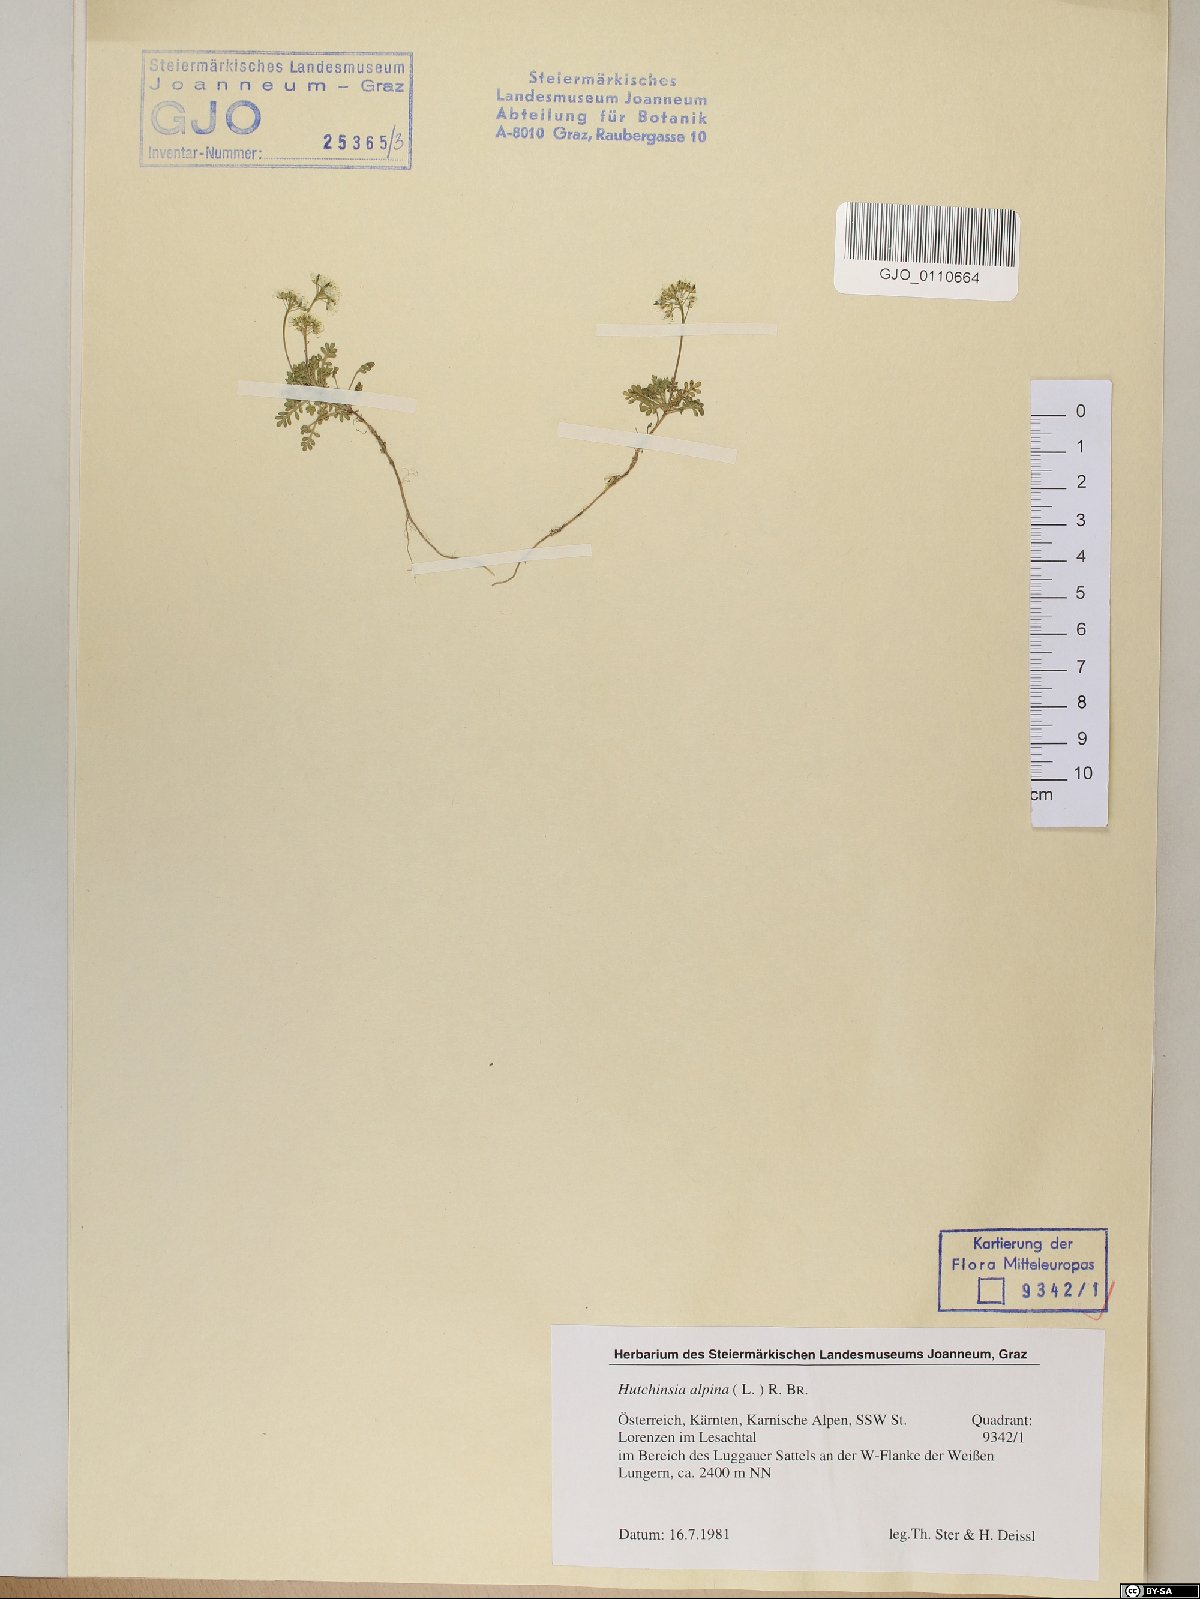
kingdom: Plantae
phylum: Tracheophyta
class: Magnoliopsida
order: Brassicales
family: Brassicaceae
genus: Hornungia
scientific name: Hornungia alpina
